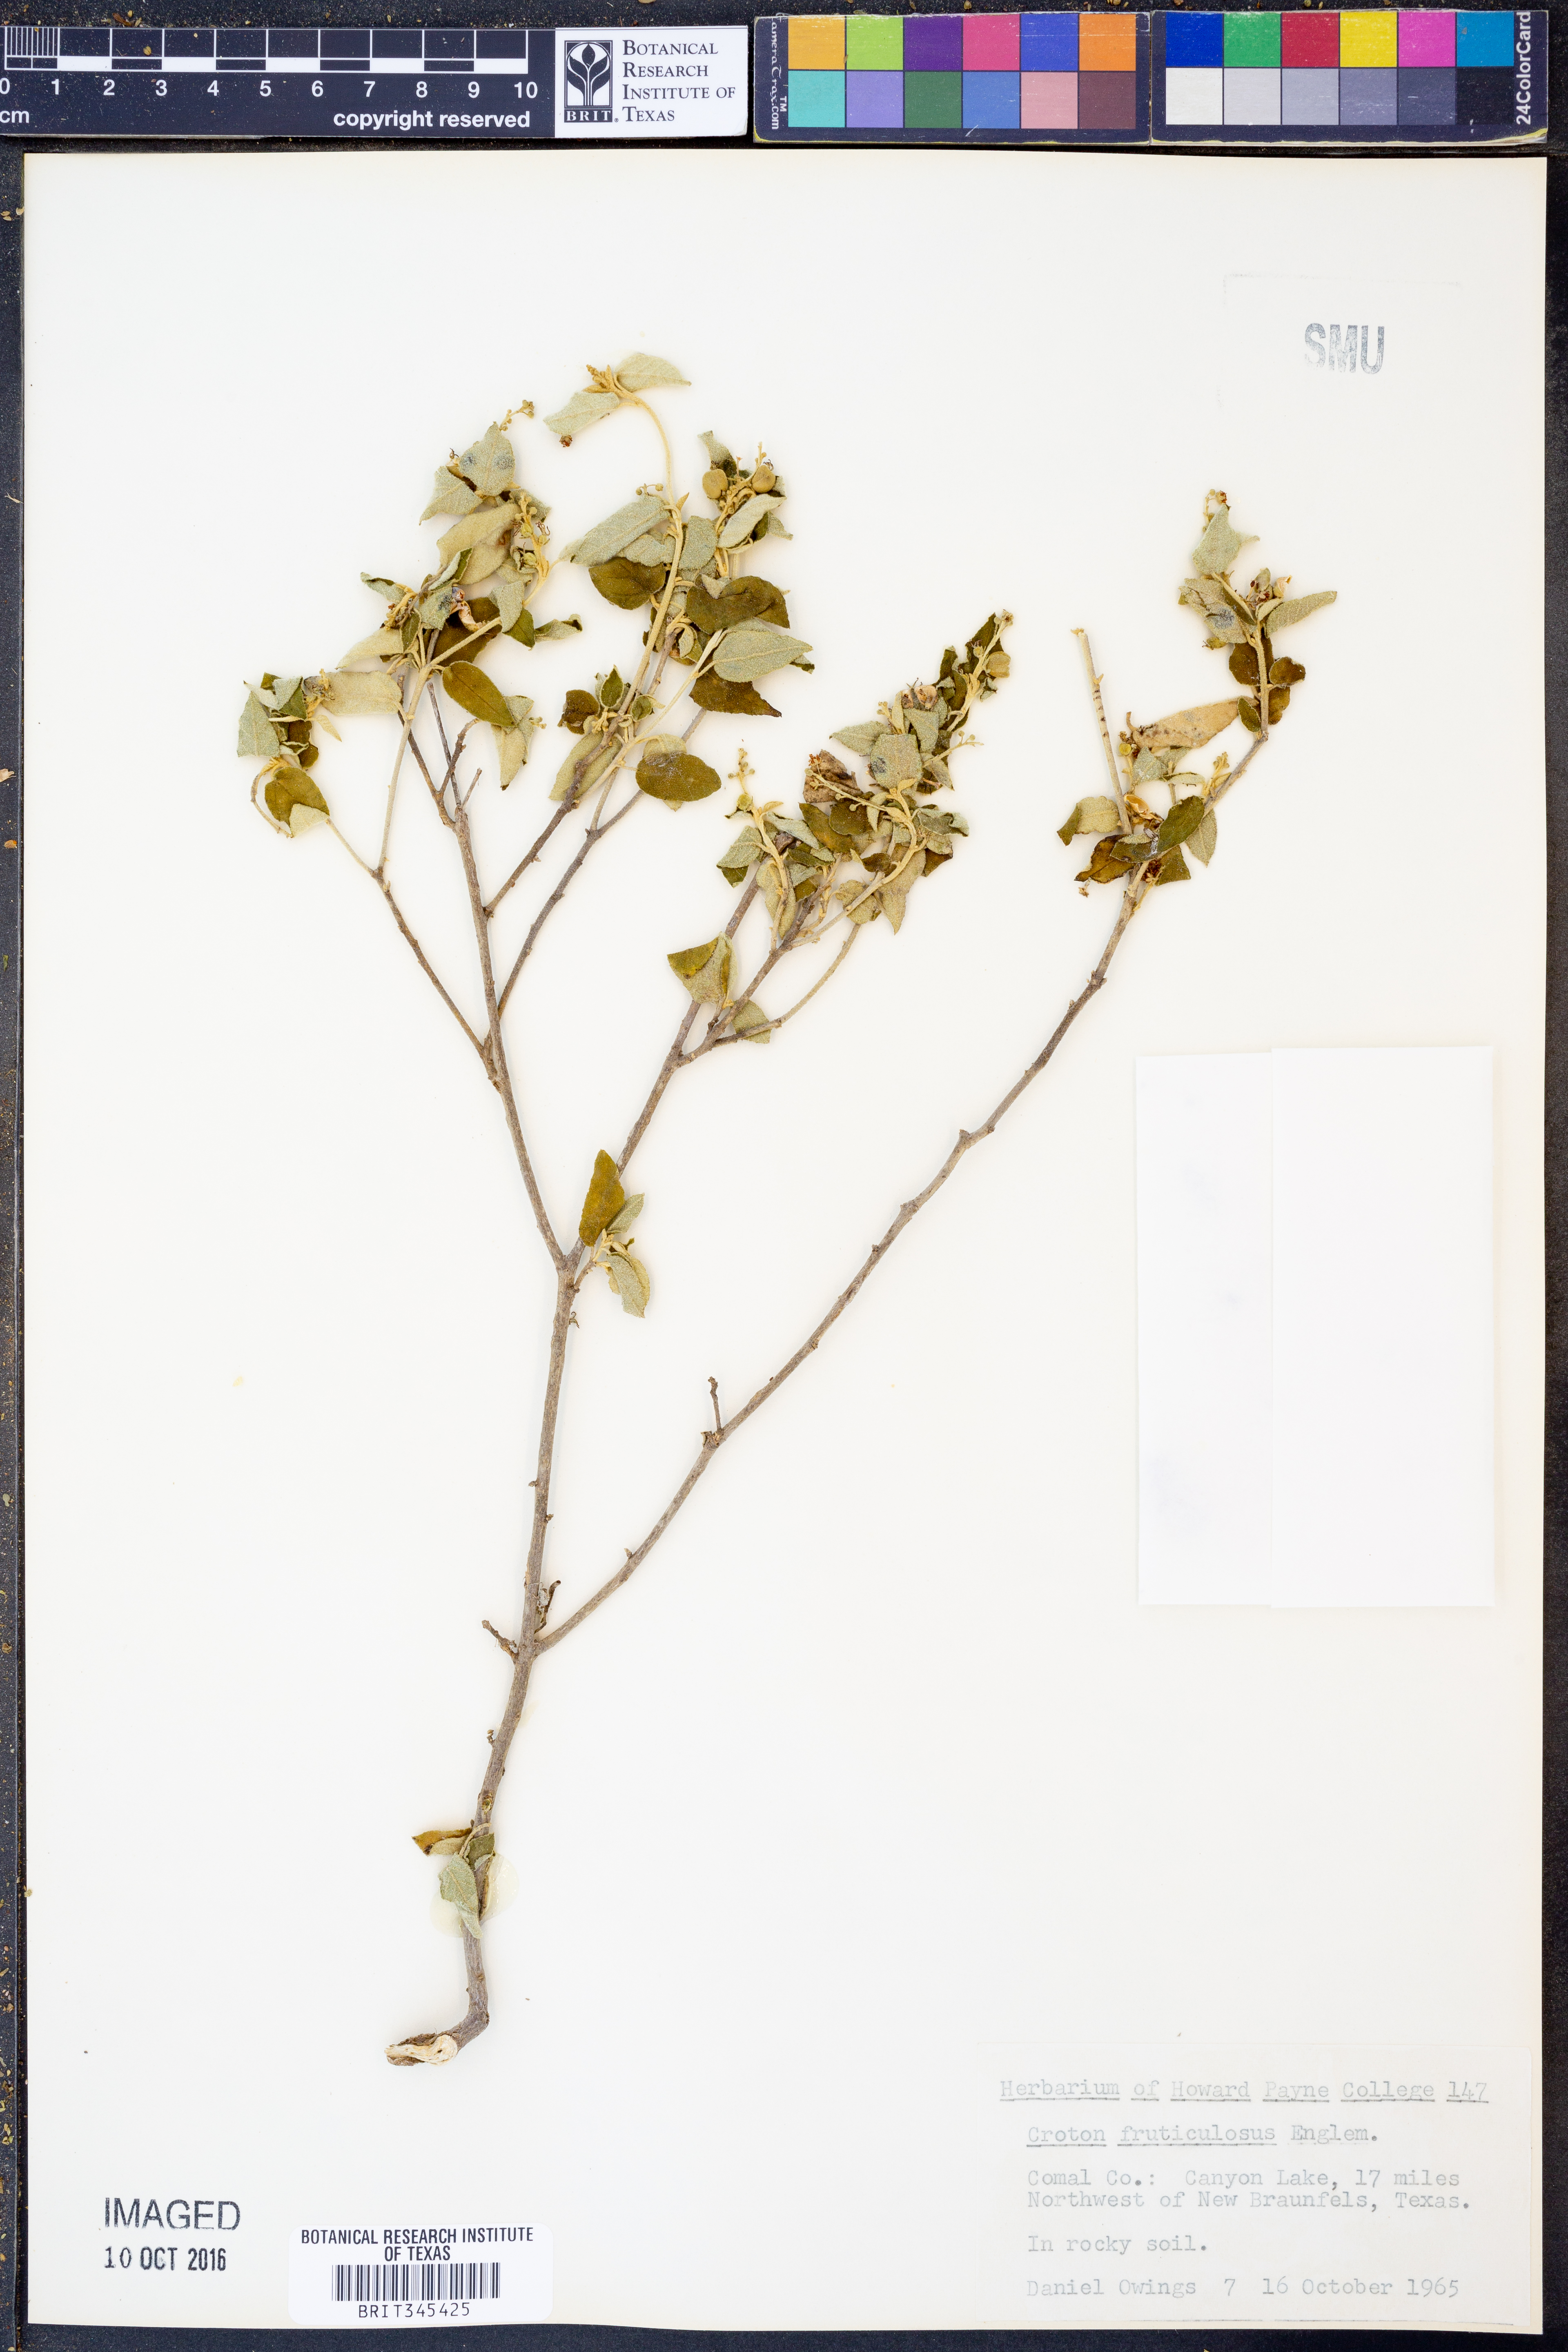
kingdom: Plantae
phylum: Tracheophyta
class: Magnoliopsida
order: Malpighiales
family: Euphorbiaceae
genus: Croton
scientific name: Croton fruticulosus
